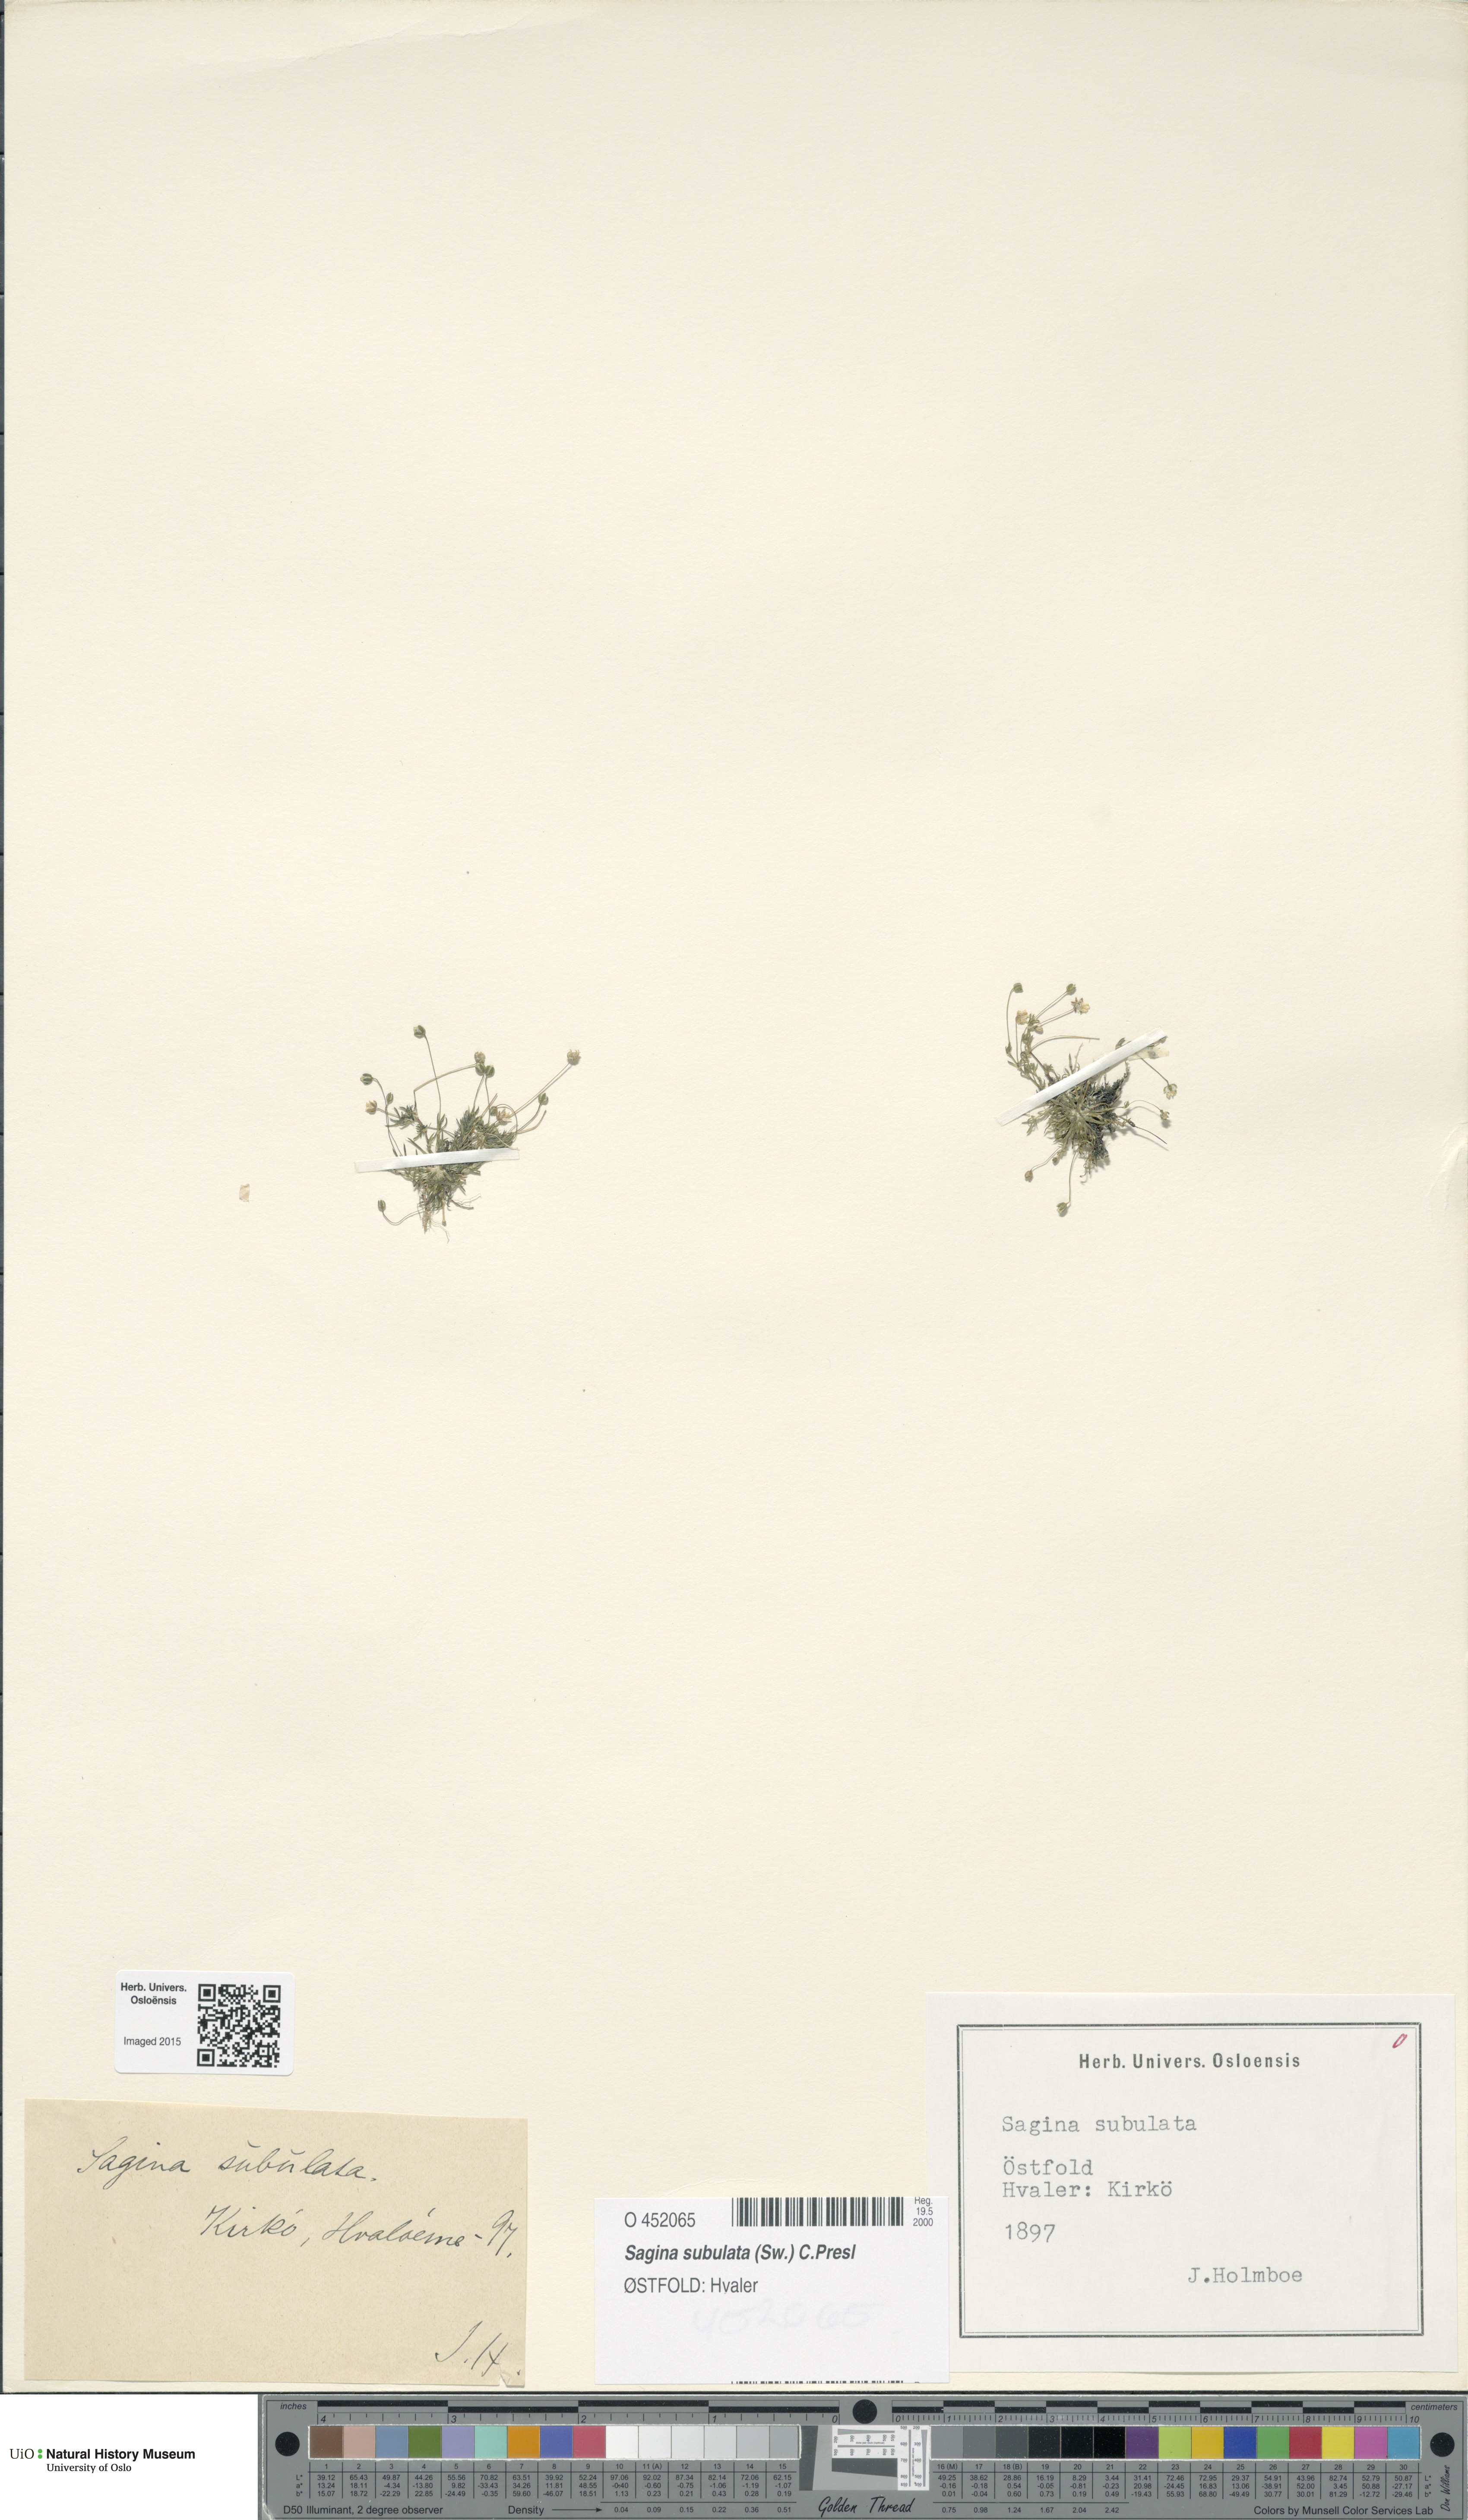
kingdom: Plantae
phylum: Tracheophyta
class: Magnoliopsida
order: Caryophyllales
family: Caryophyllaceae
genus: Sagina
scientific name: Sagina alexandrae
